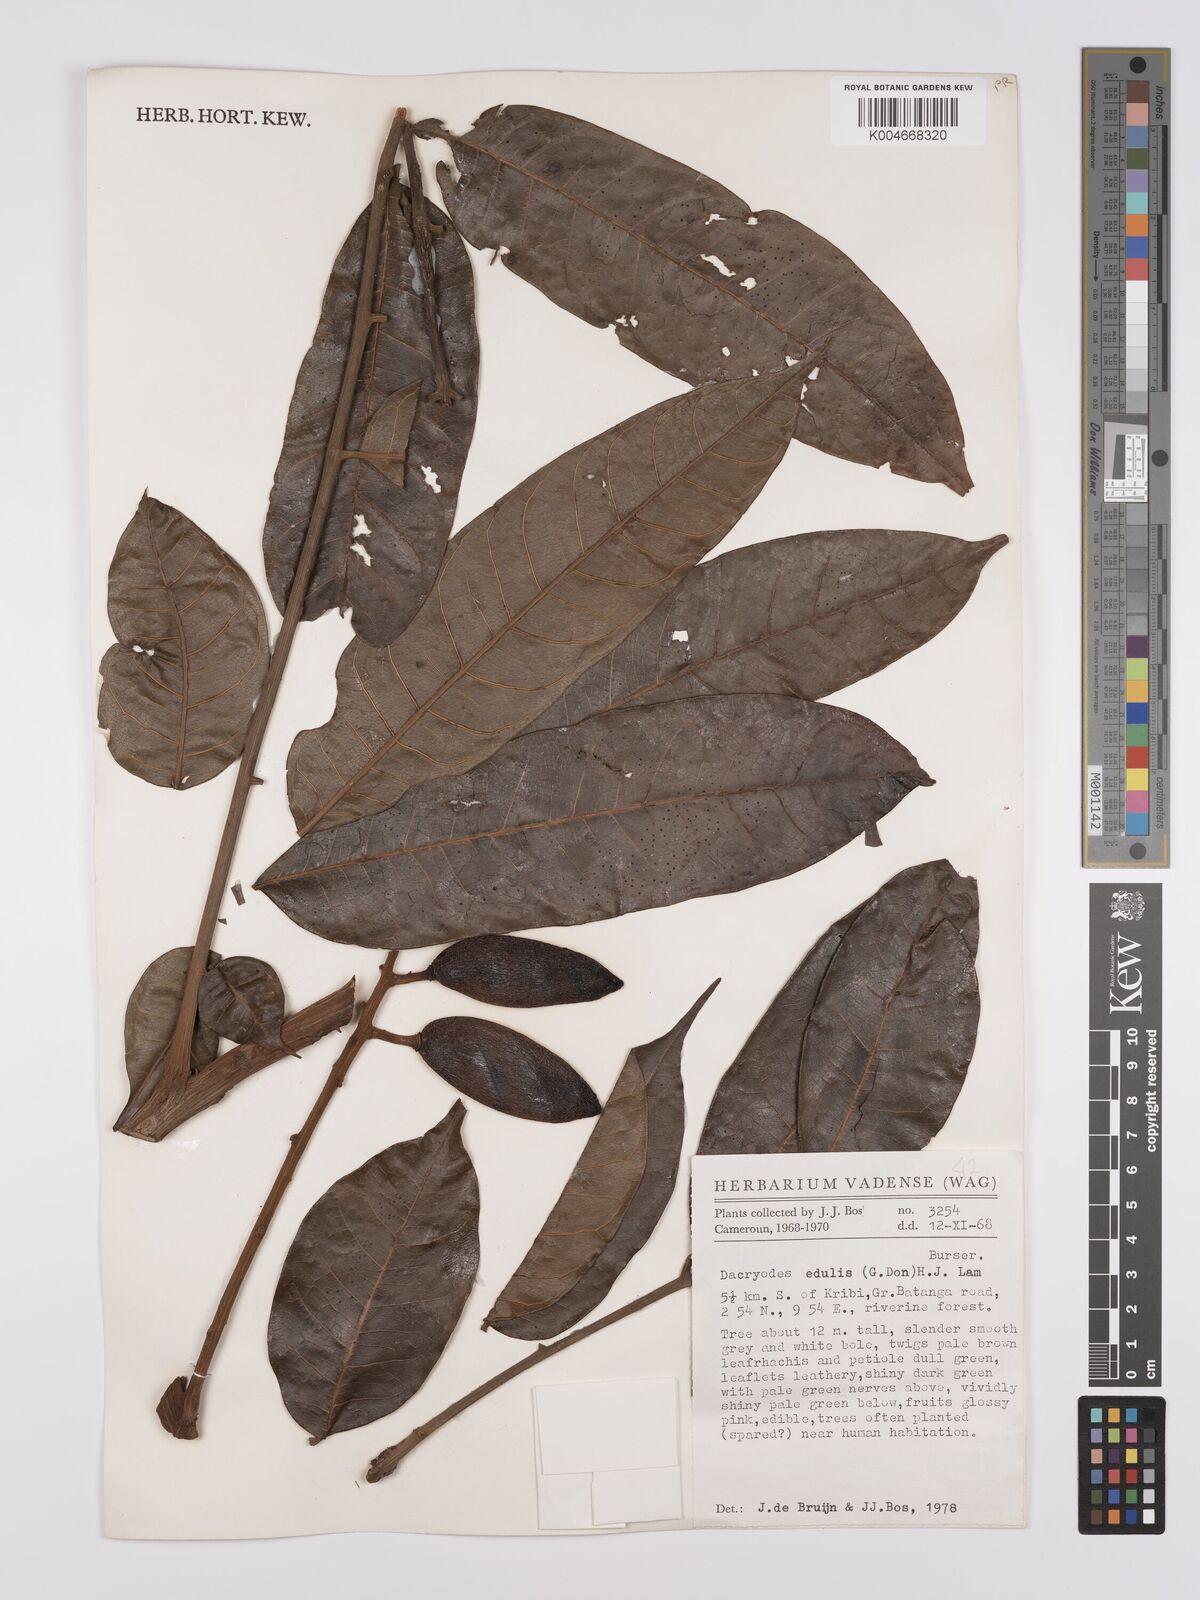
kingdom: Plantae
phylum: Tracheophyta
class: Magnoliopsida
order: Sapindales
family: Burseraceae
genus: Pachylobus
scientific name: Pachylobus edulis
